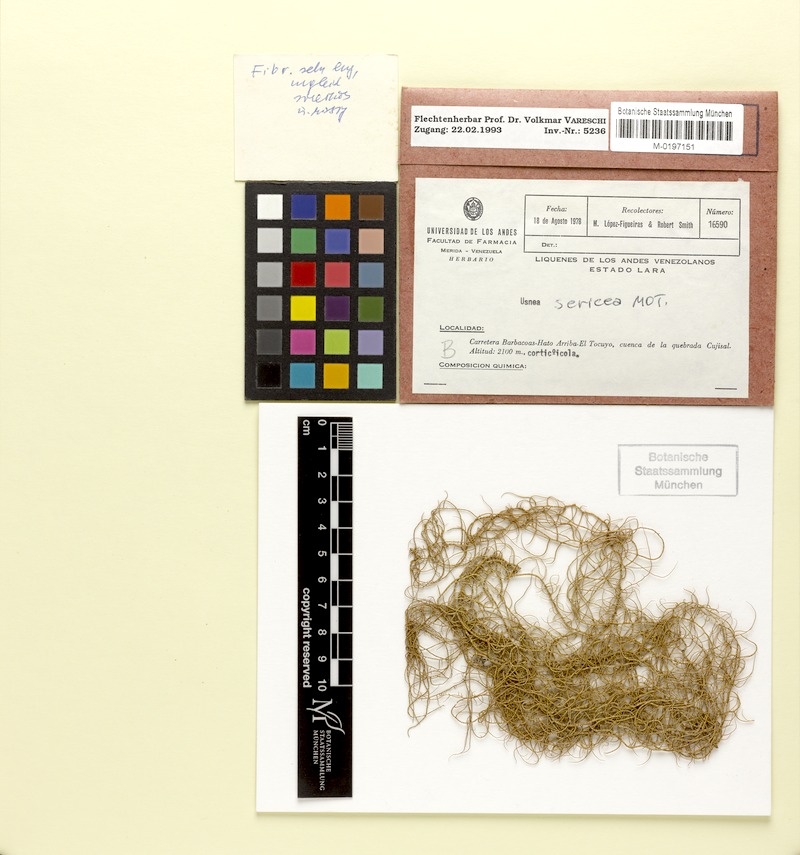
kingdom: Fungi
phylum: Ascomycota
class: Lecanoromycetes
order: Lecanorales
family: Parmeliaceae
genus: Usnea
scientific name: Usnea
